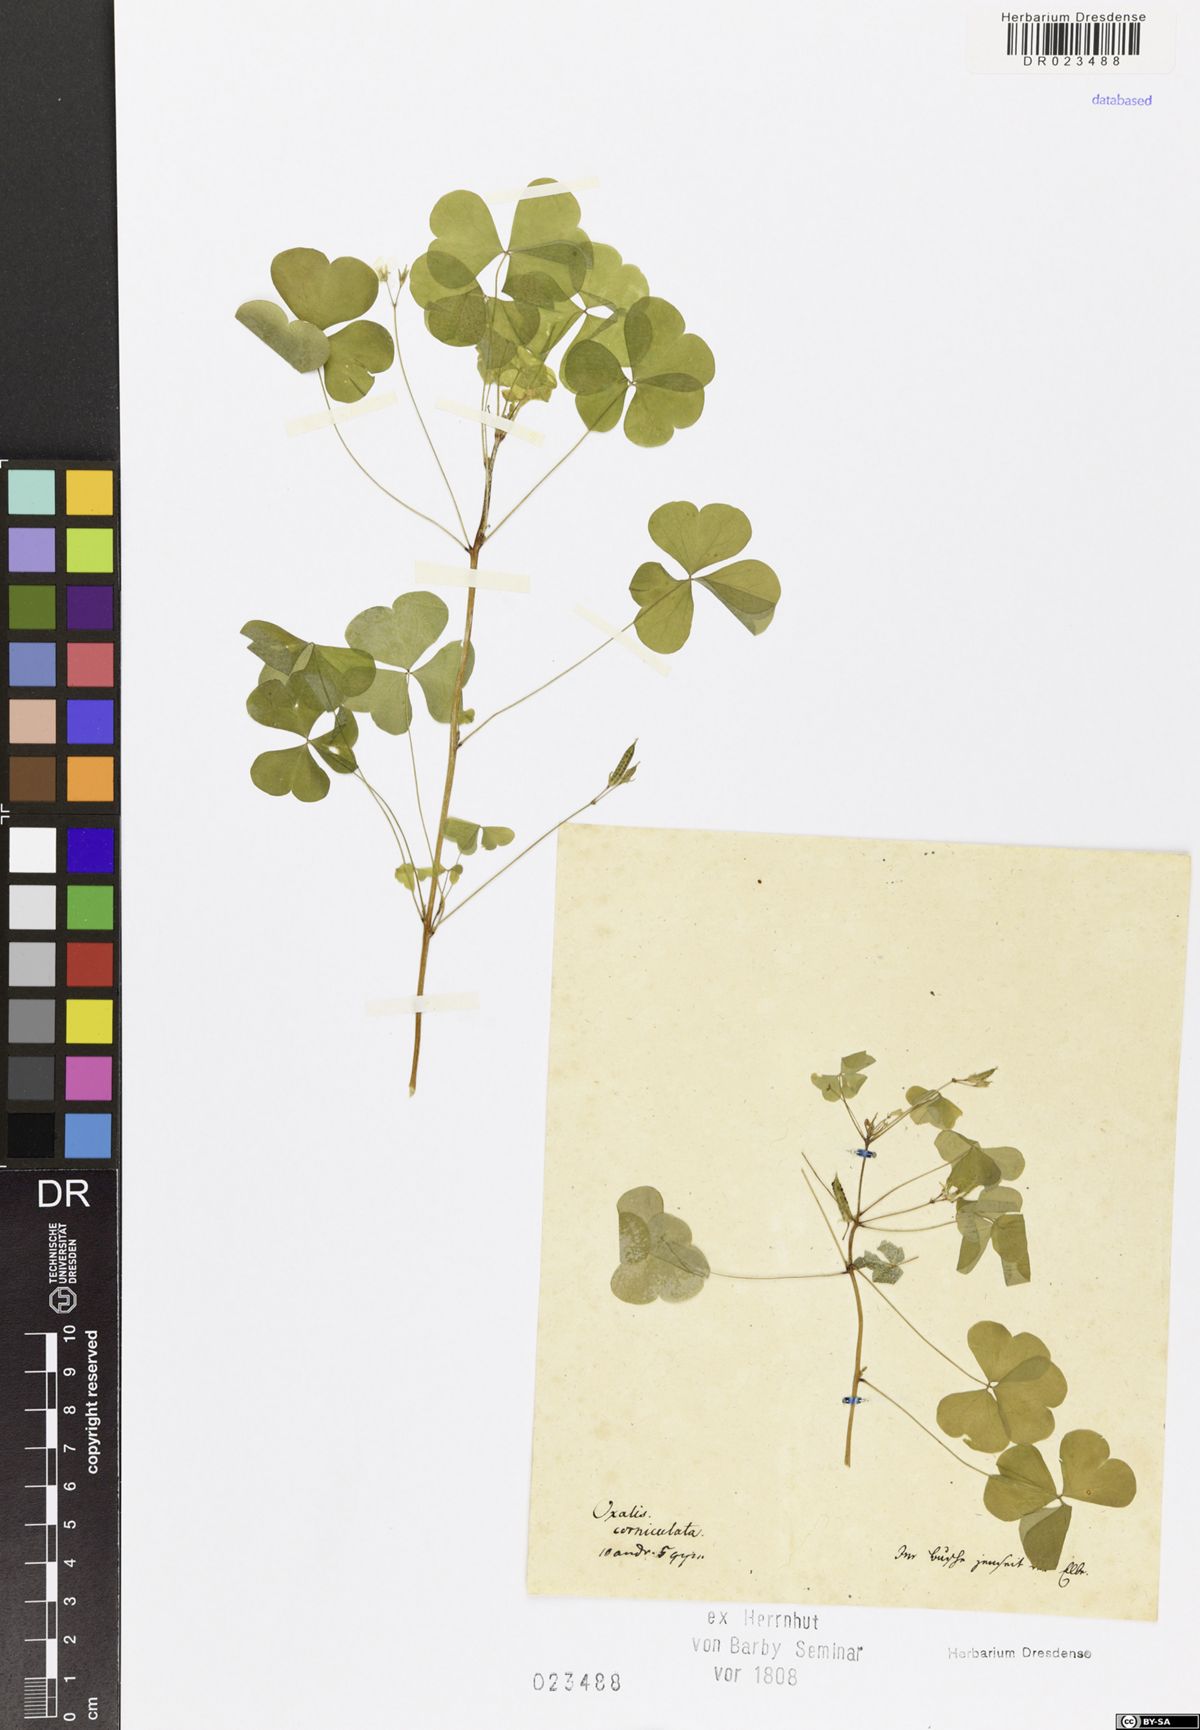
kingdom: Plantae
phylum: Tracheophyta
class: Magnoliopsida
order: Oxalidales
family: Oxalidaceae
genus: Oxalis
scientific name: Oxalis stricta
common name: Upright yellow-sorrel
